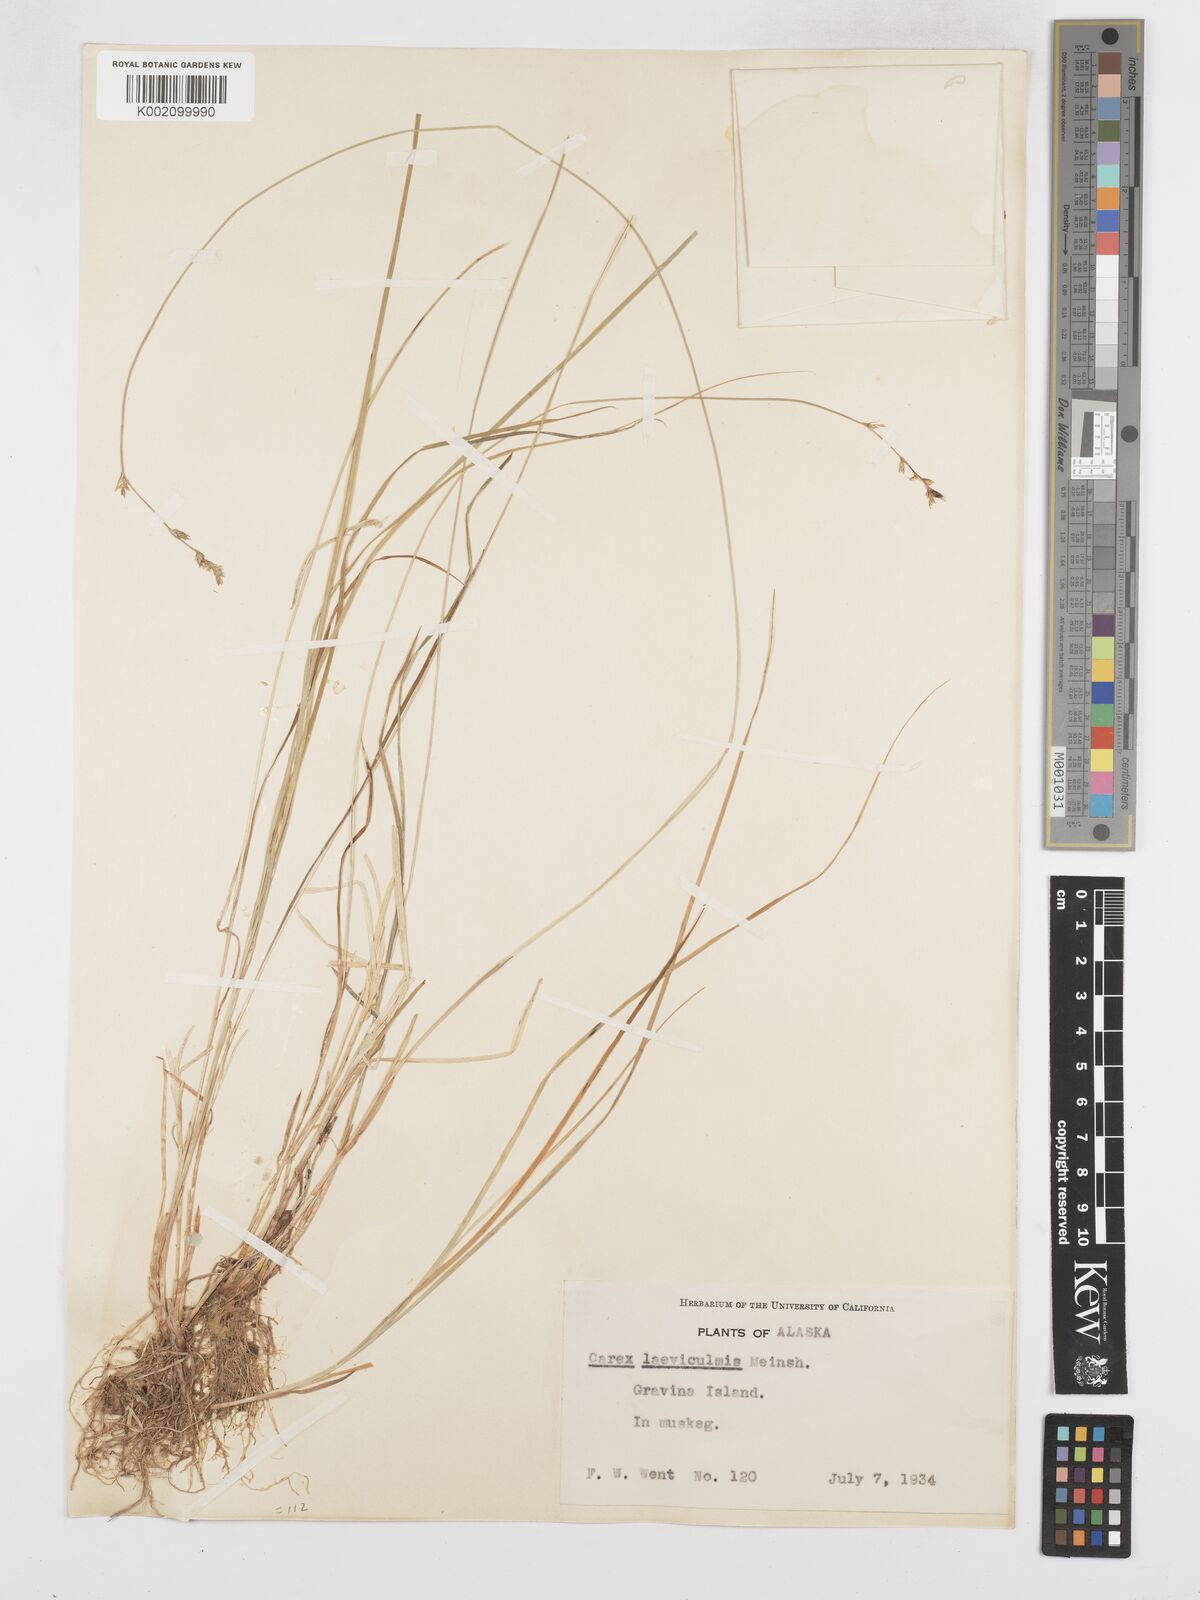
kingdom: Plantae
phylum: Tracheophyta
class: Liliopsida
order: Poales
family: Cyperaceae
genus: Carex
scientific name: Carex laeviculmis
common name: Smooth sedge
